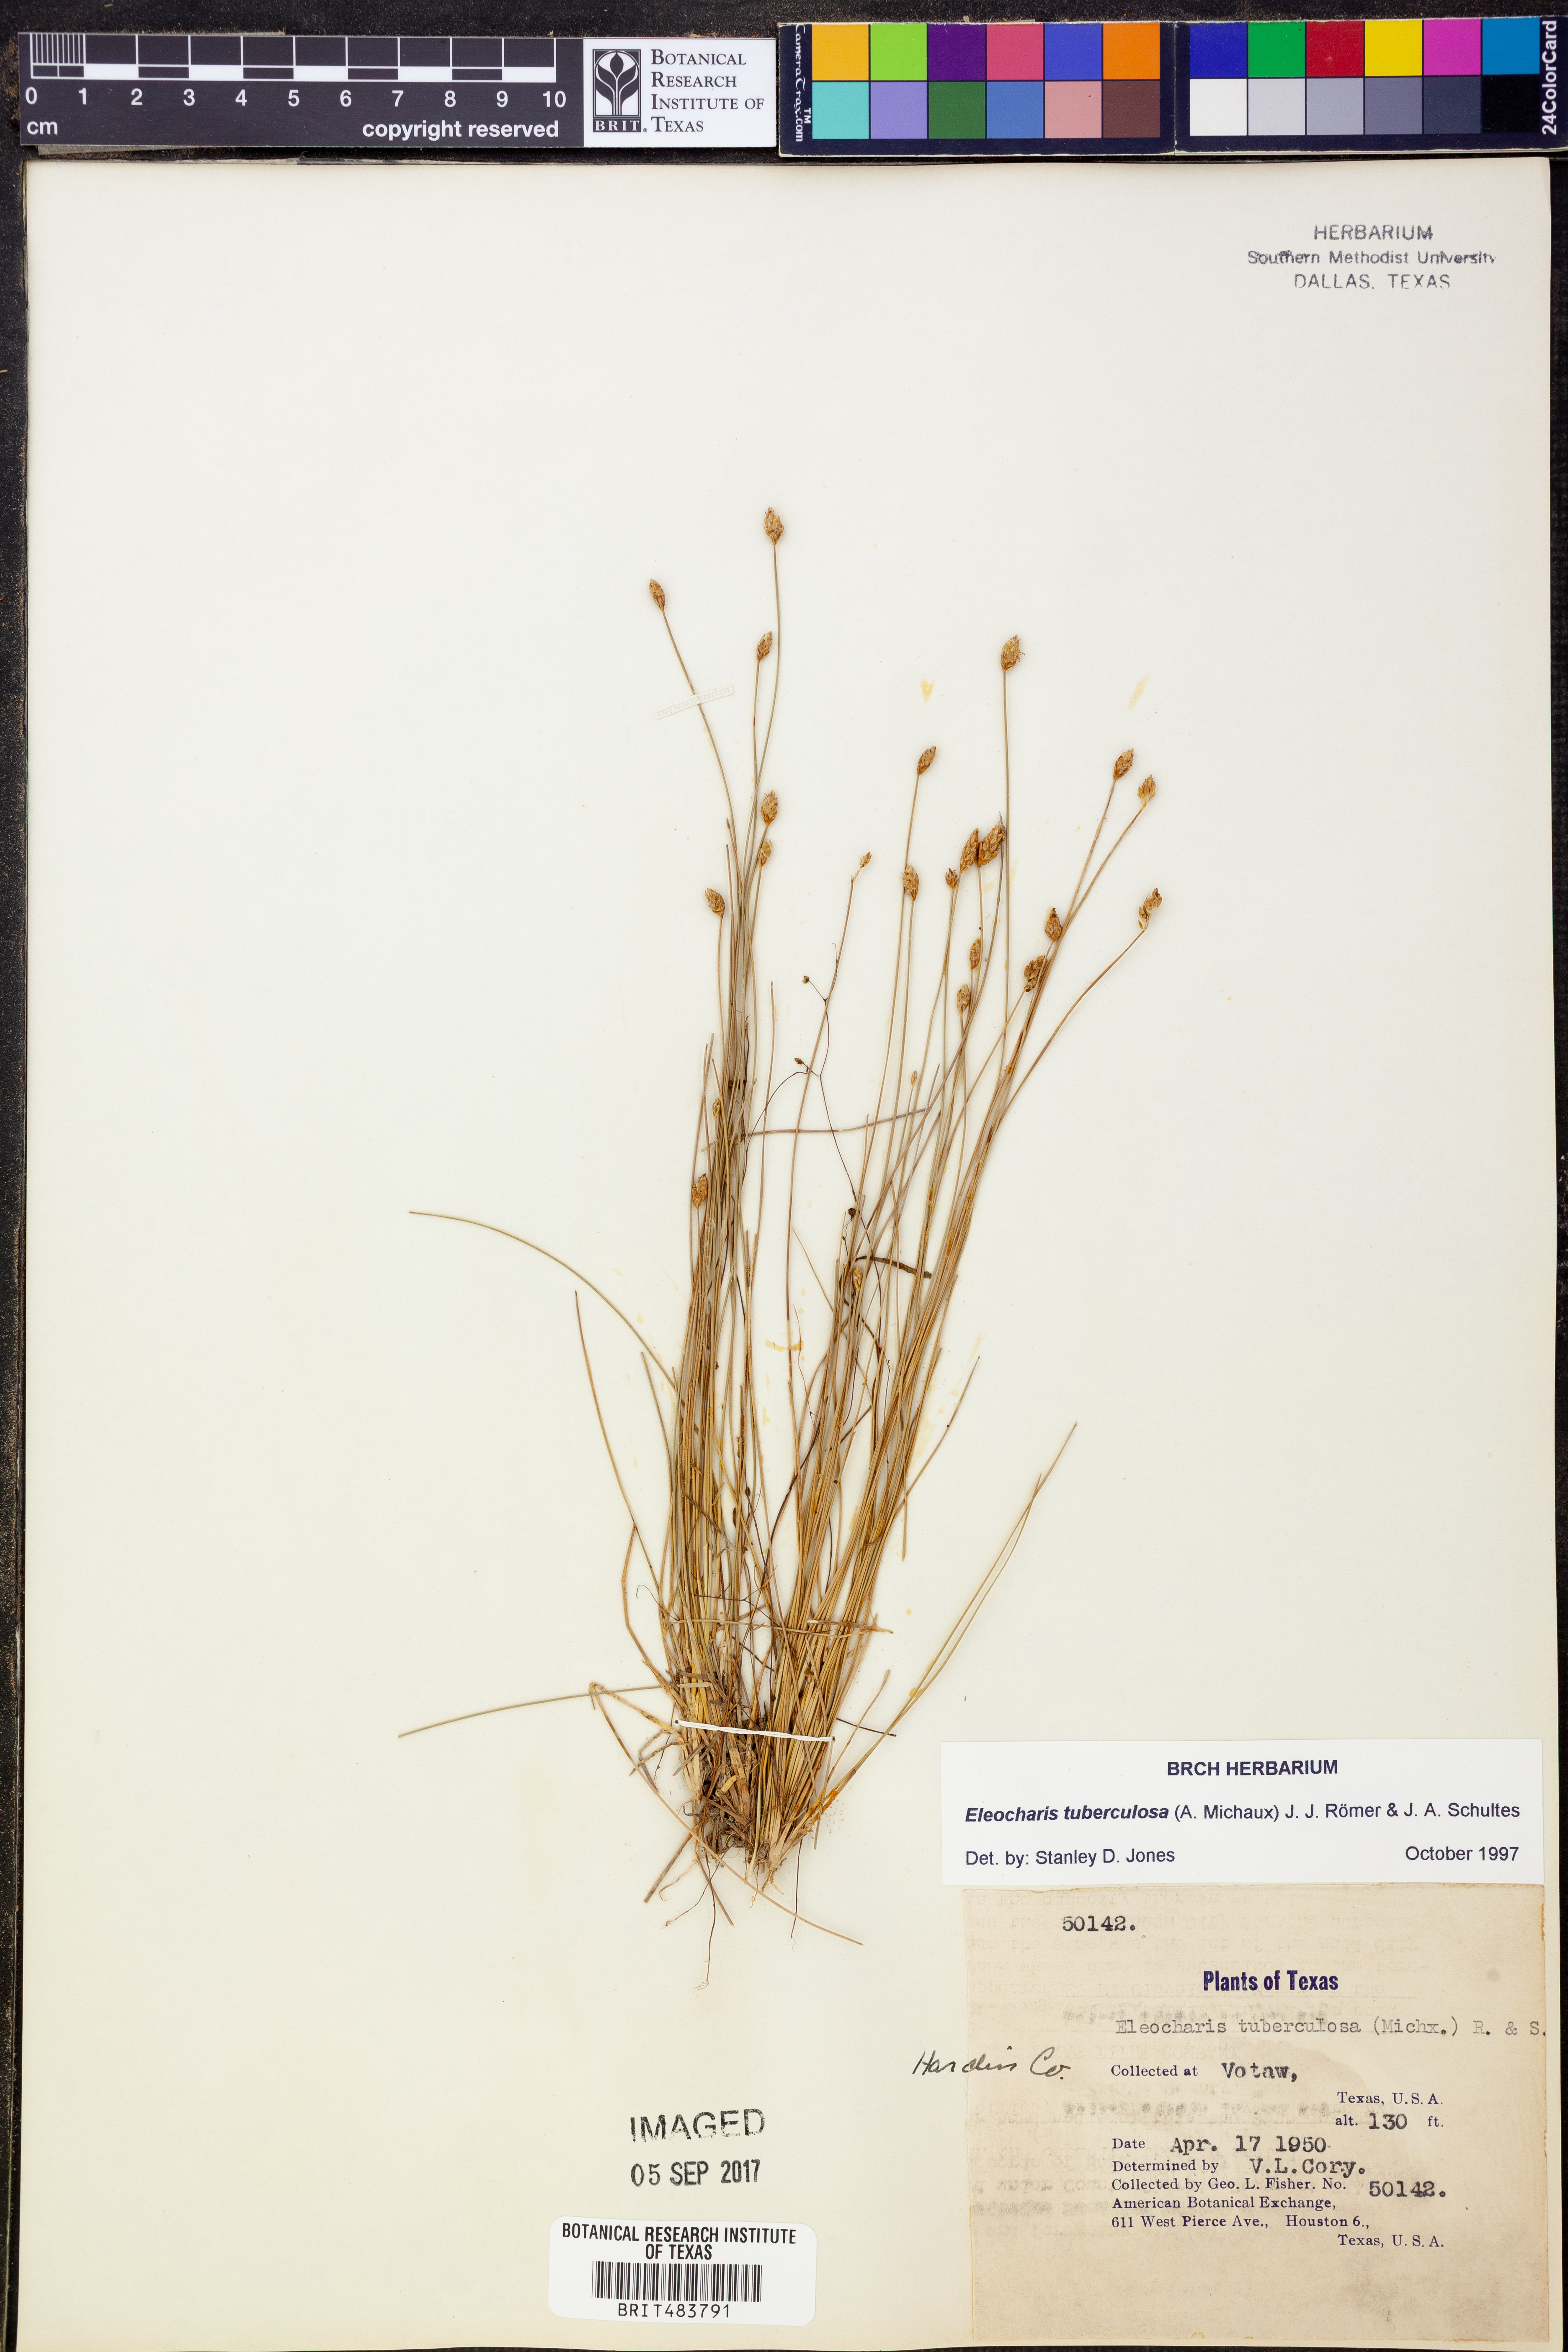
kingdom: Plantae
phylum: Tracheophyta
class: Liliopsida
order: Poales
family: Cyperaceae
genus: Eleocharis
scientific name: Eleocharis tuberculosa
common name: Cone-cup spikerush
